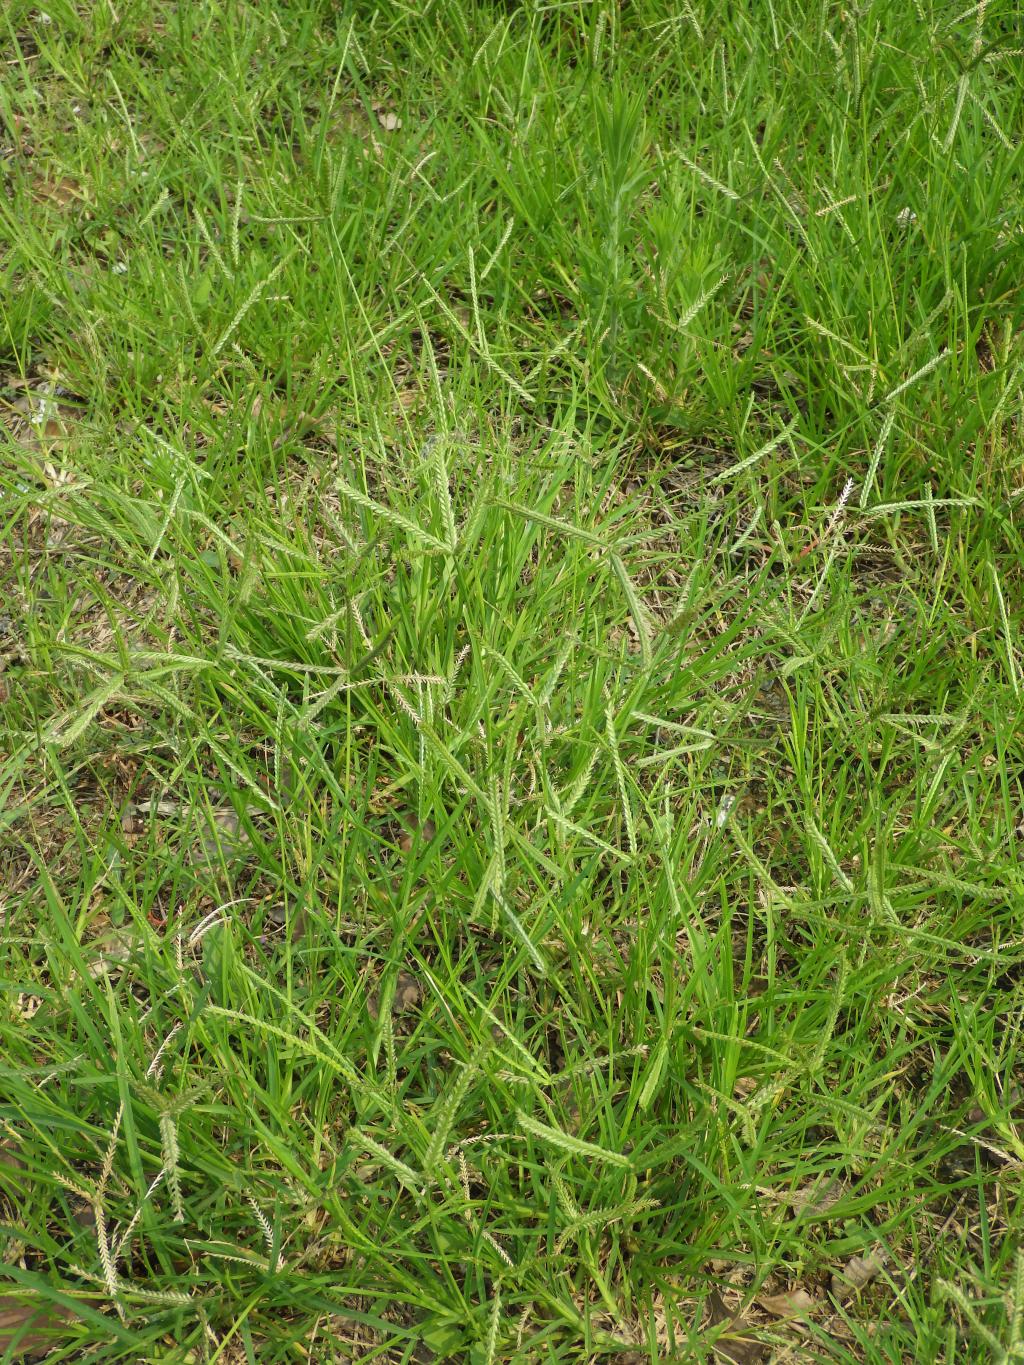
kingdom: Plantae
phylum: Tracheophyta
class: Liliopsida
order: Poales
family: Poaceae
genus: Eleusine
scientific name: Eleusine indica
